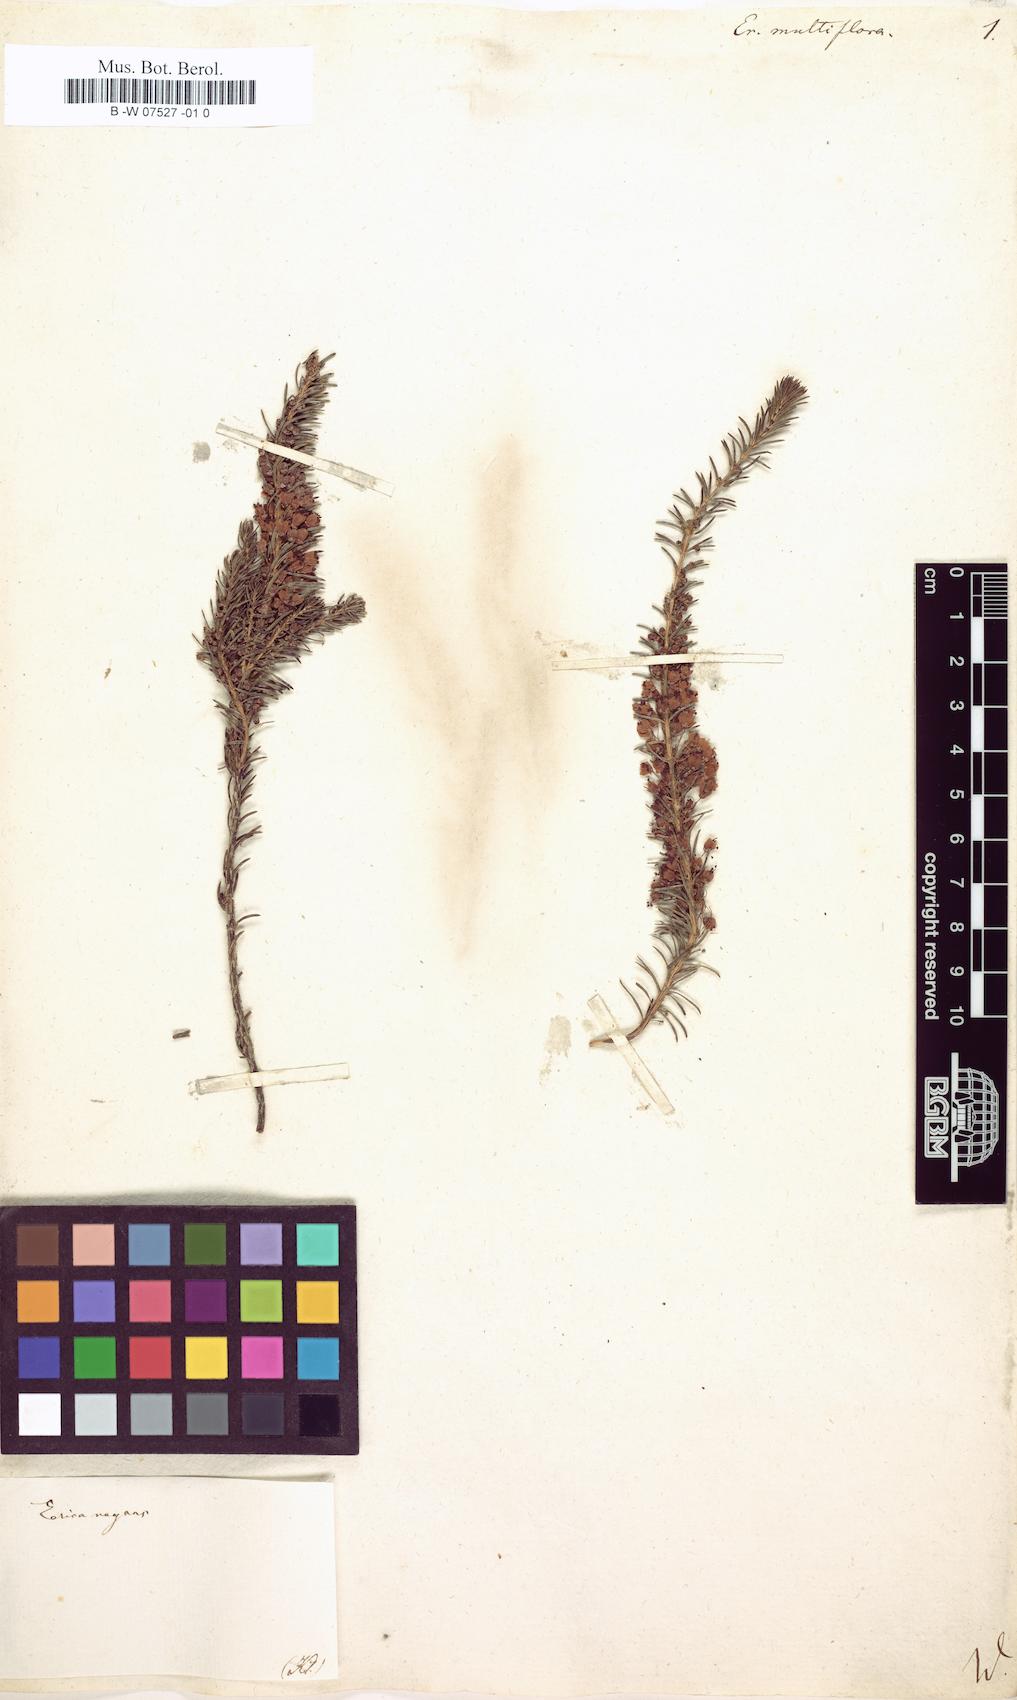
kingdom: Plantae
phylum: Tracheophyta
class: Magnoliopsida
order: Ericales
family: Ericaceae
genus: Erica
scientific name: Erica multiflora
